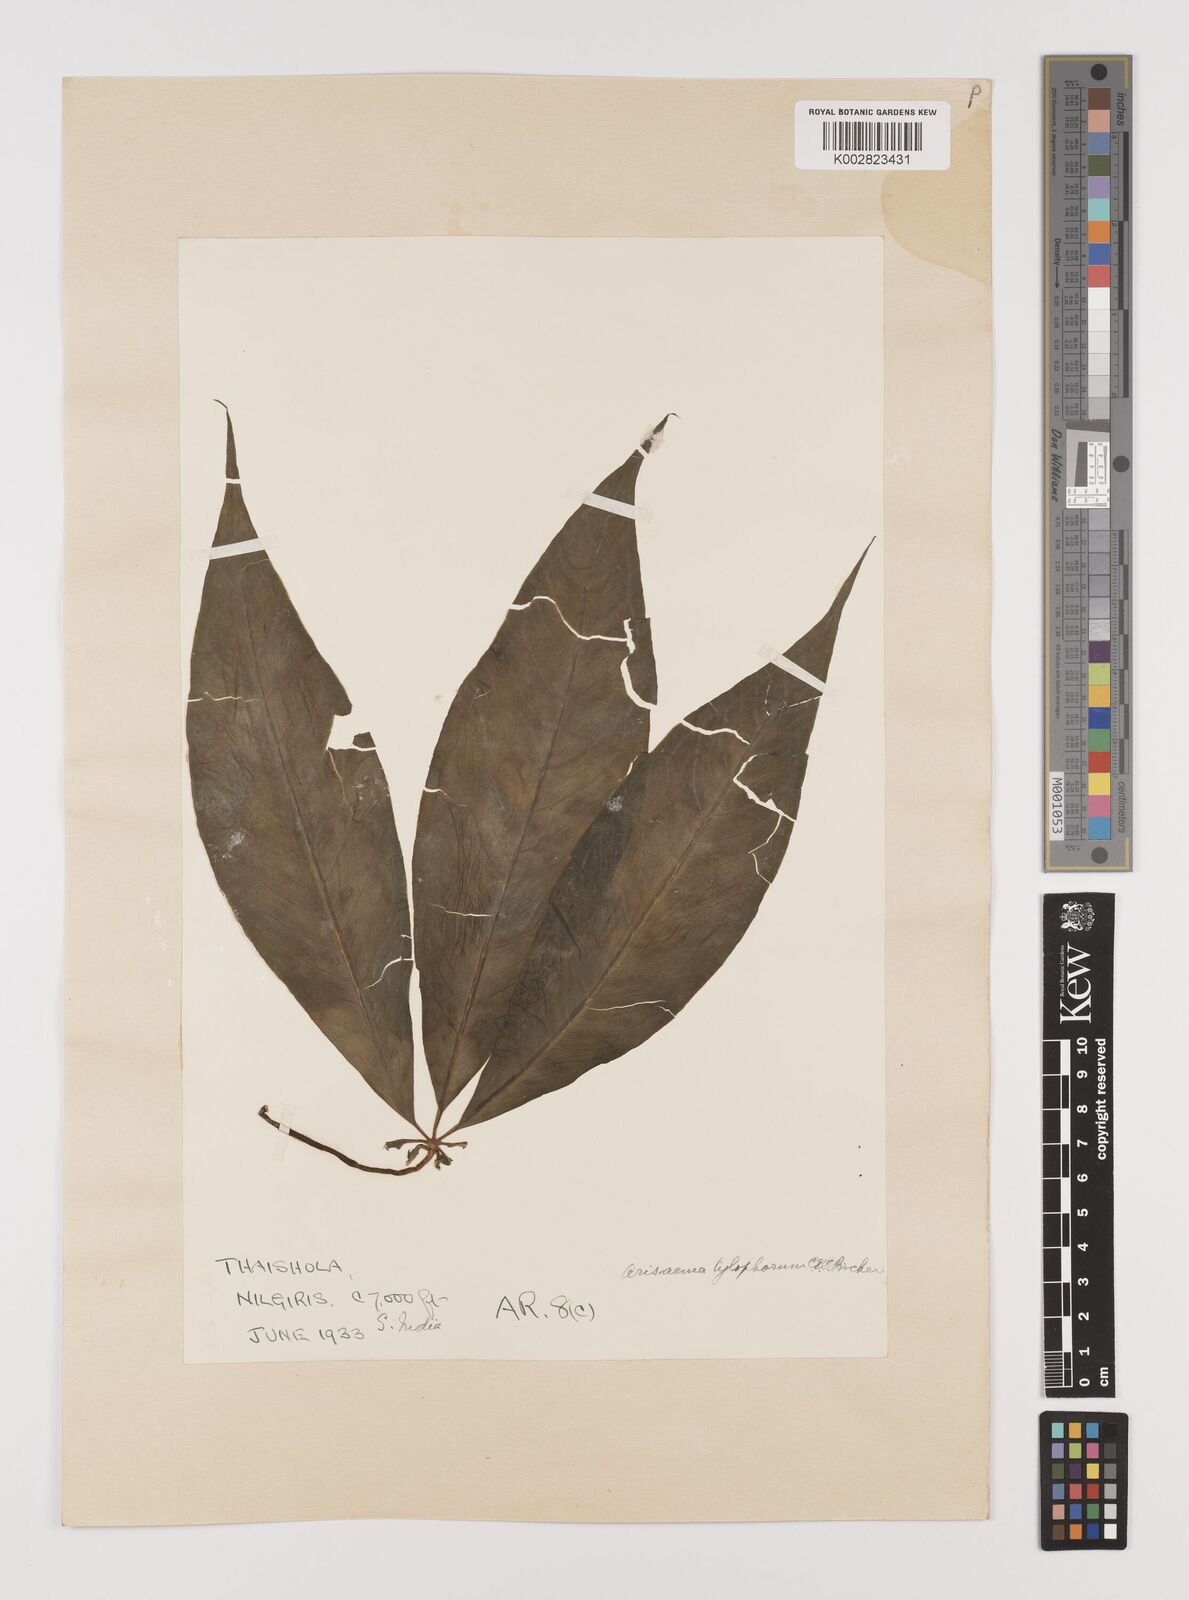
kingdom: Plantae
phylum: Tracheophyta
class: Liliopsida
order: Alismatales
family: Araceae
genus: Arisaema
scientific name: Arisaema barnesii
